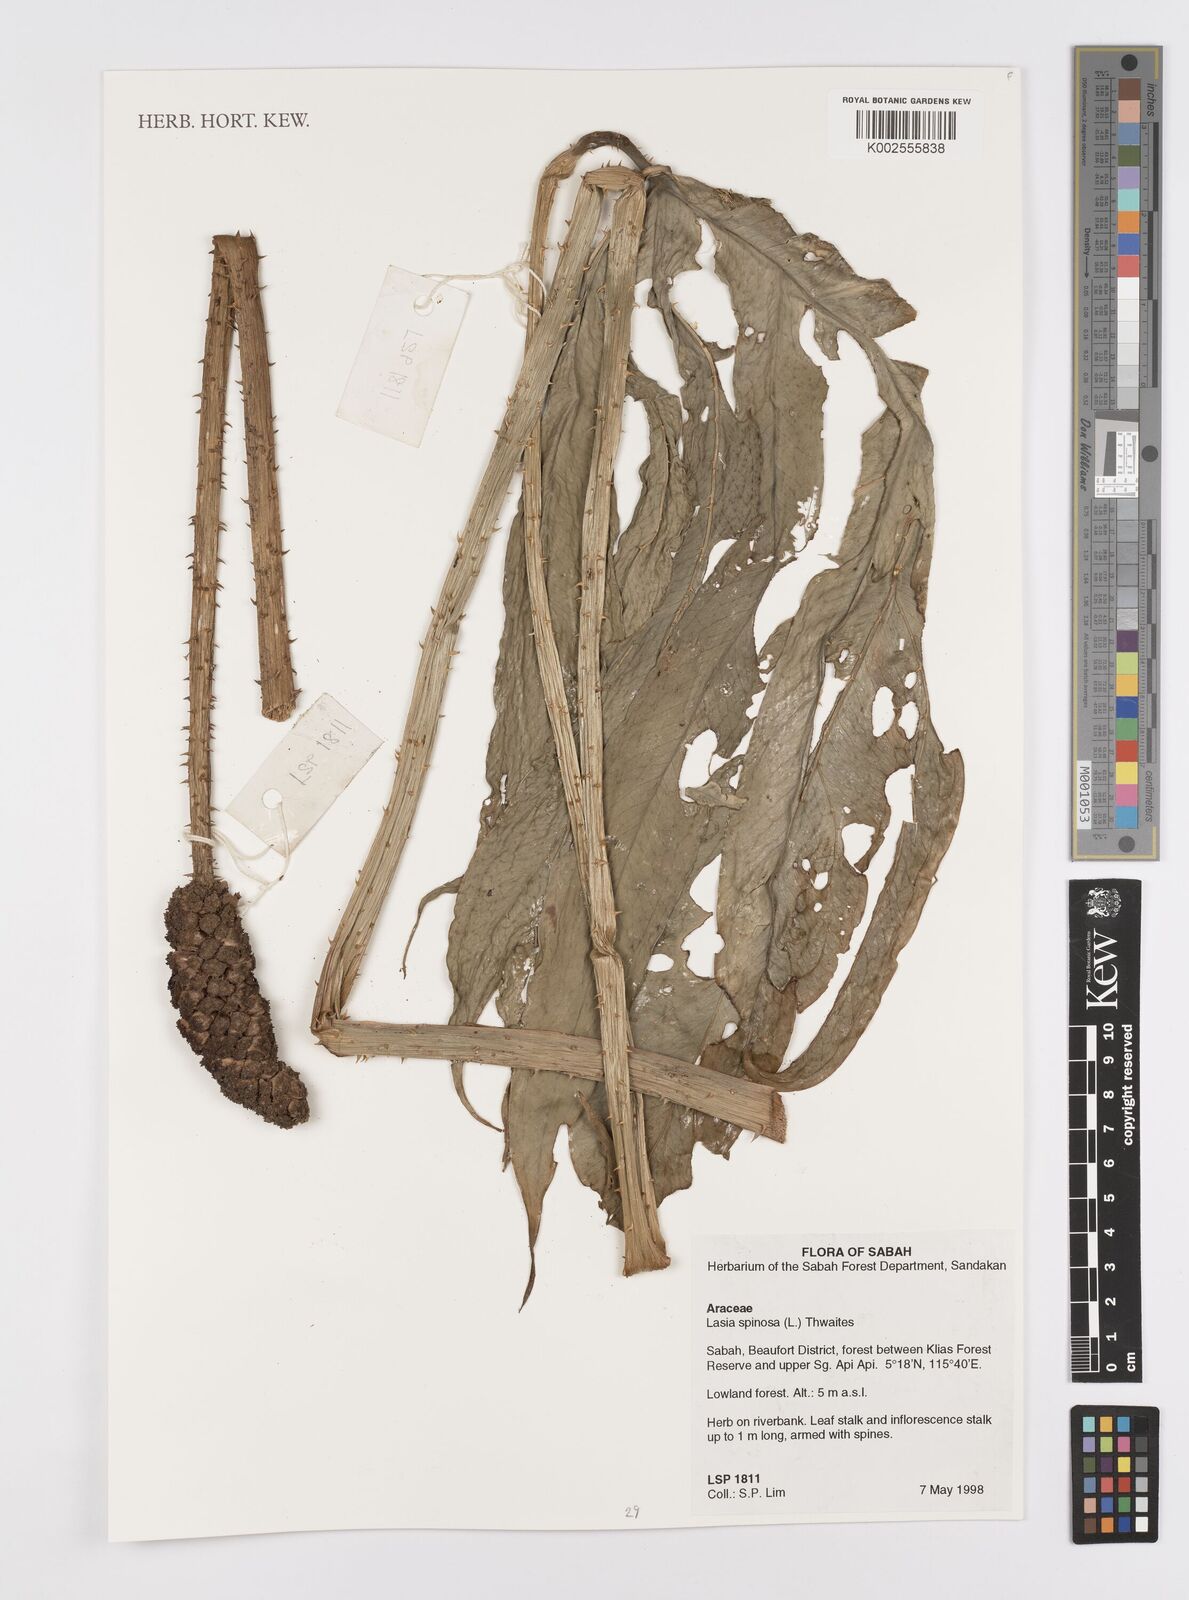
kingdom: Plantae
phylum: Tracheophyta
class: Liliopsida
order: Alismatales
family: Araceae
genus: Lasia
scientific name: Lasia spinosa
